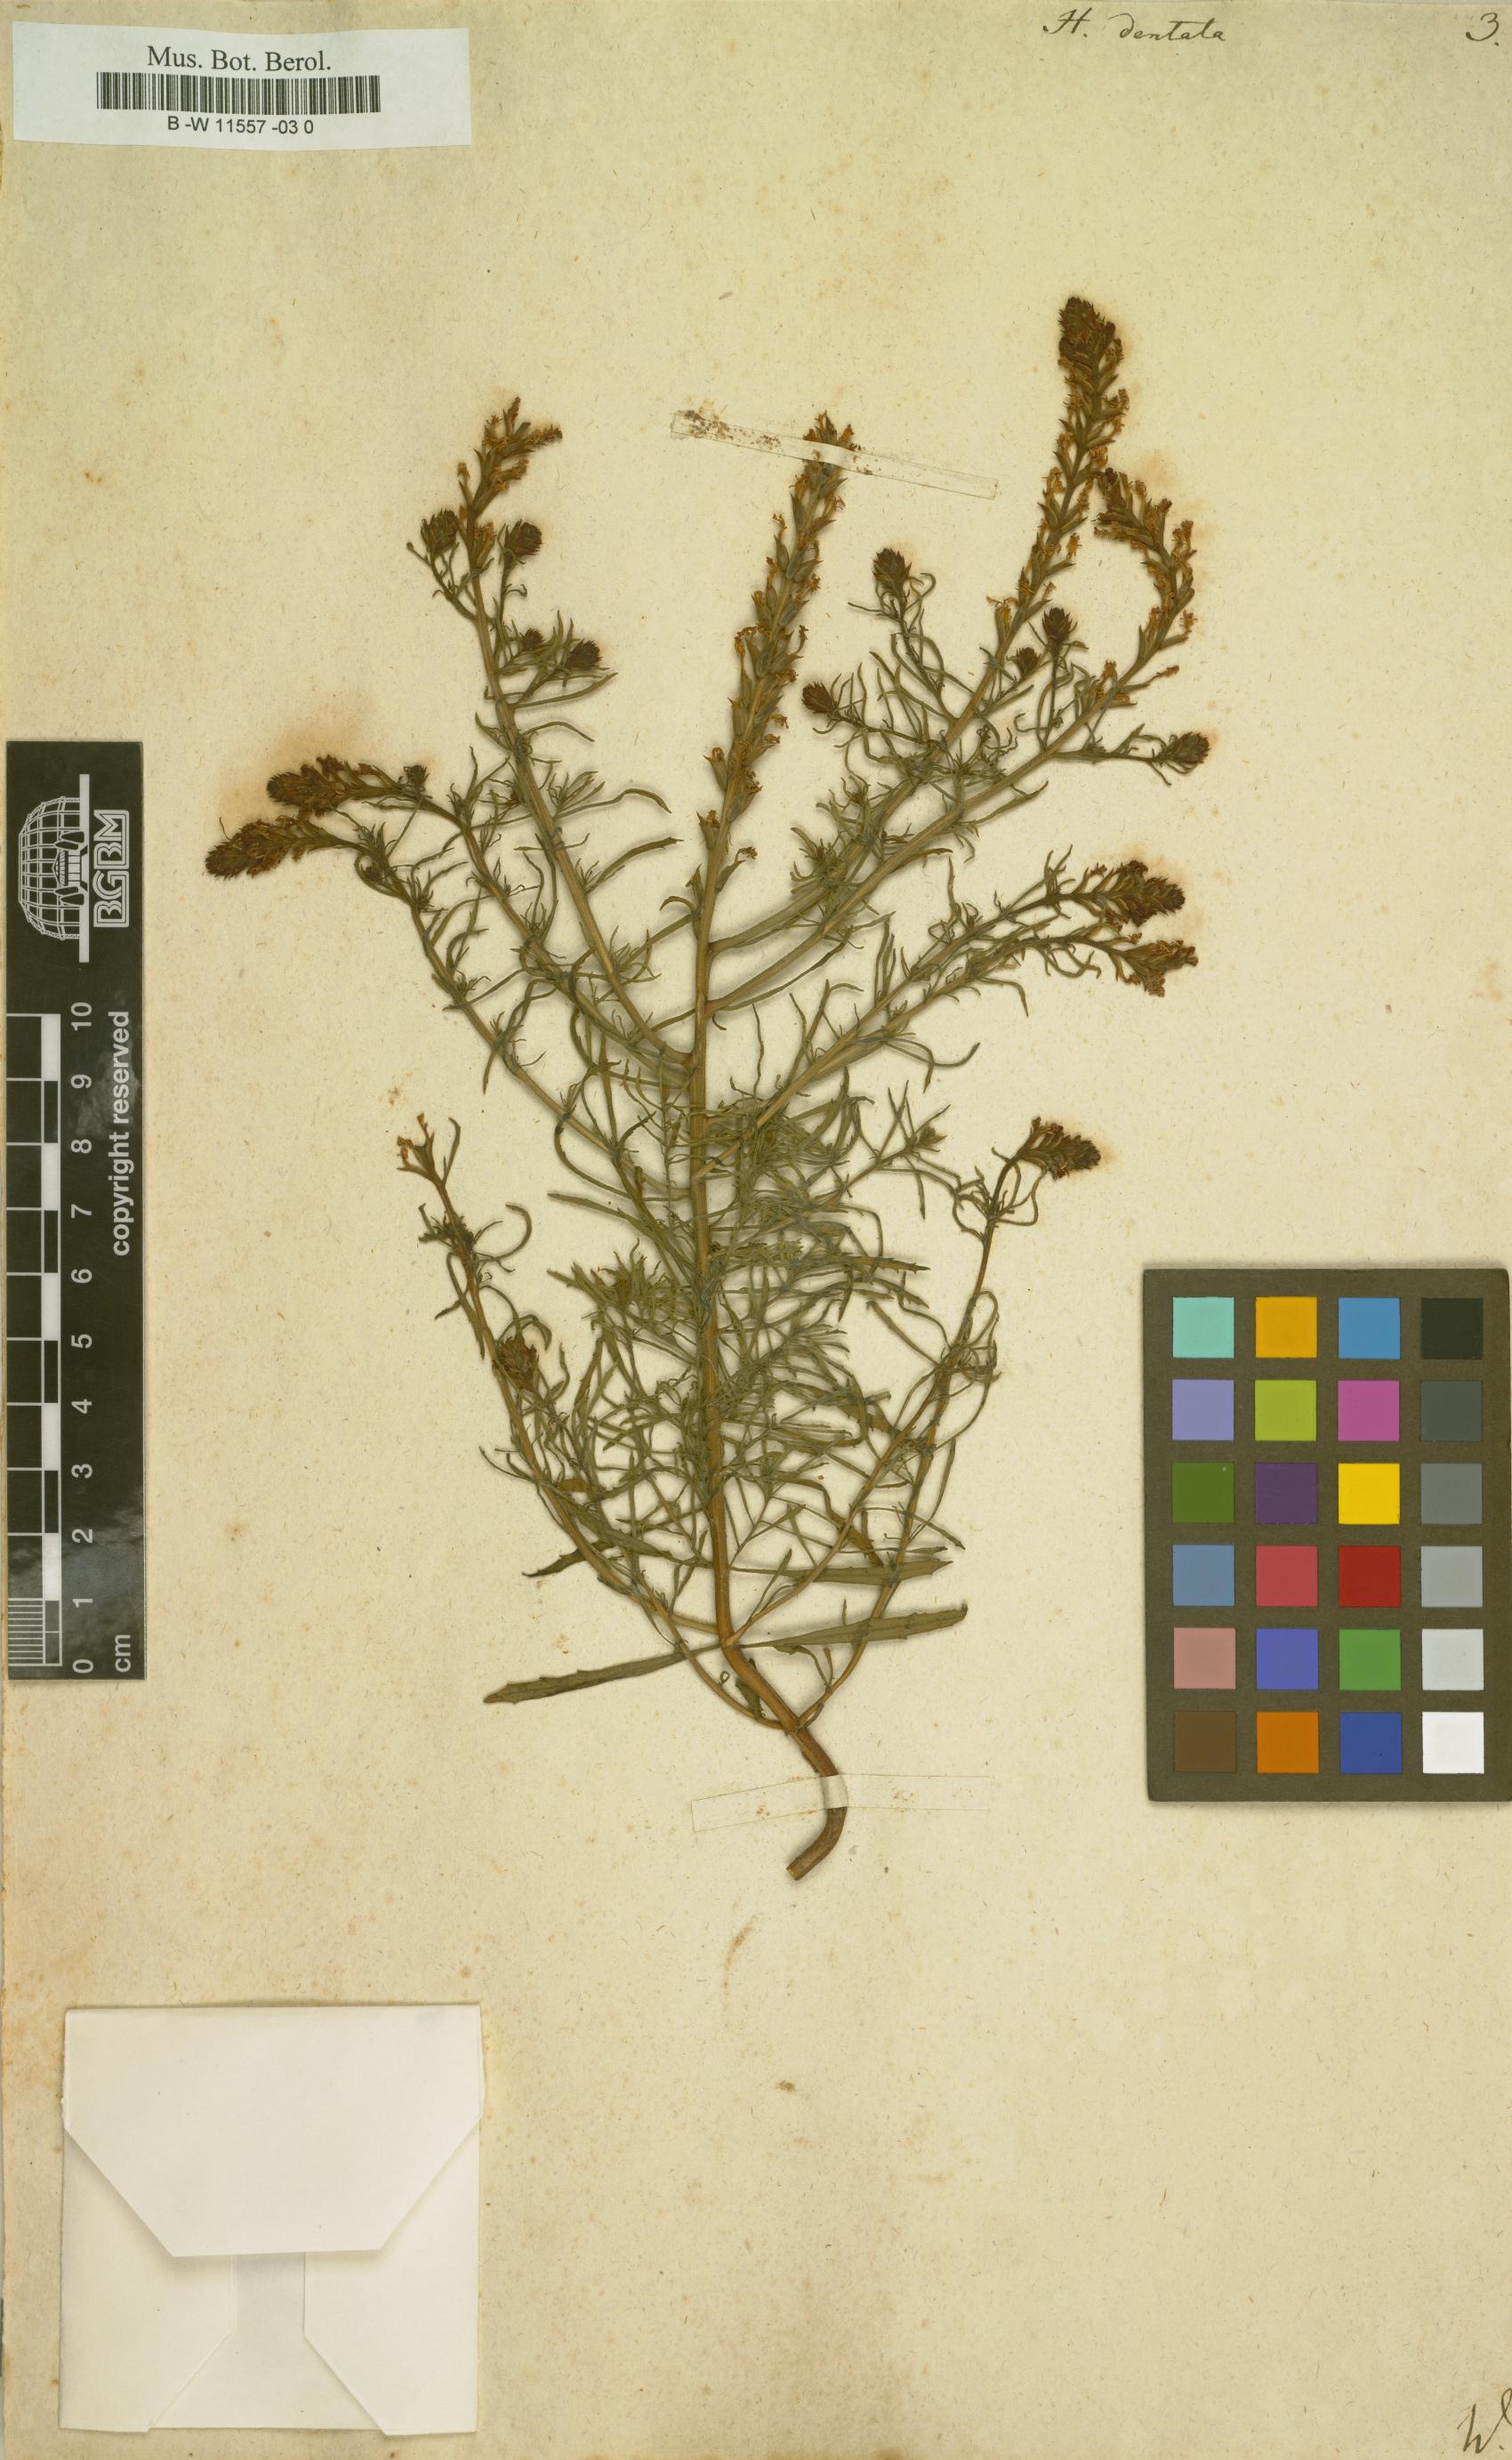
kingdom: Plantae
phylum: Tracheophyta
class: Magnoliopsida
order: Lamiales
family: Scrophulariaceae
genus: Hebenstretia
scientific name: Hebenstretia dentata
